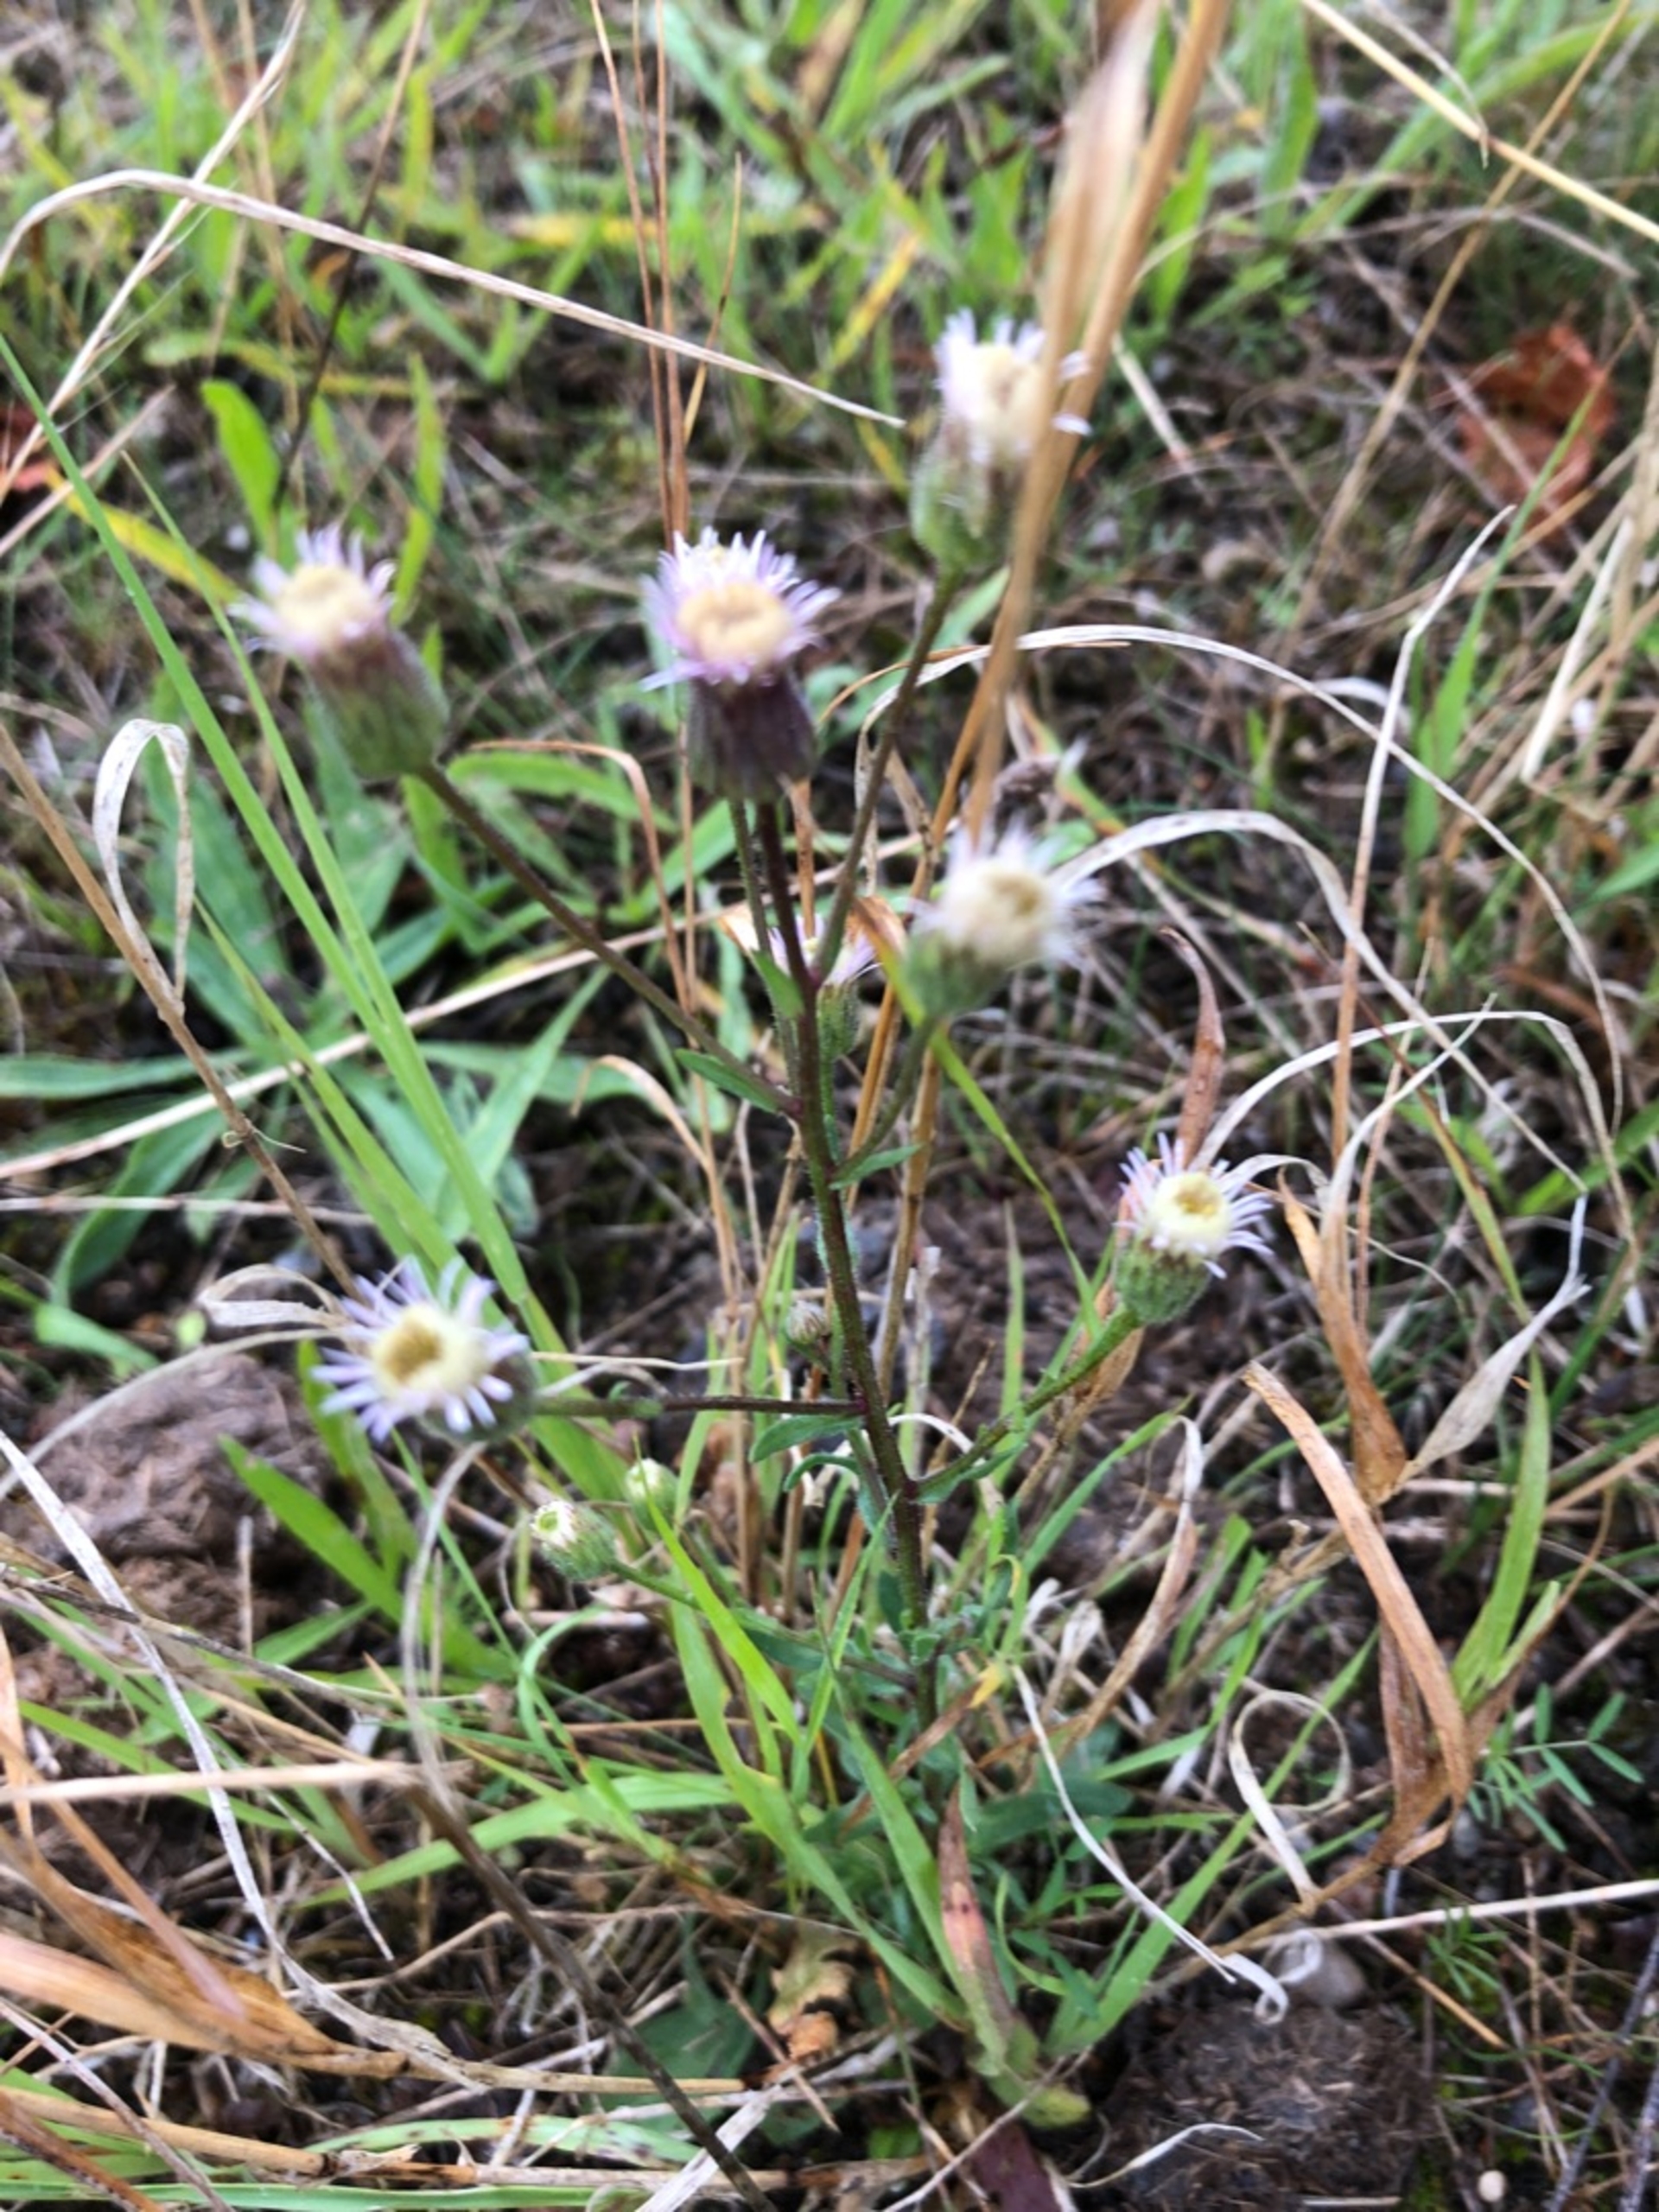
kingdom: Plantae
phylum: Tracheophyta
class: Magnoliopsida
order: Asterales
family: Asteraceae
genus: Erigeron
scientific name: Erigeron acris
